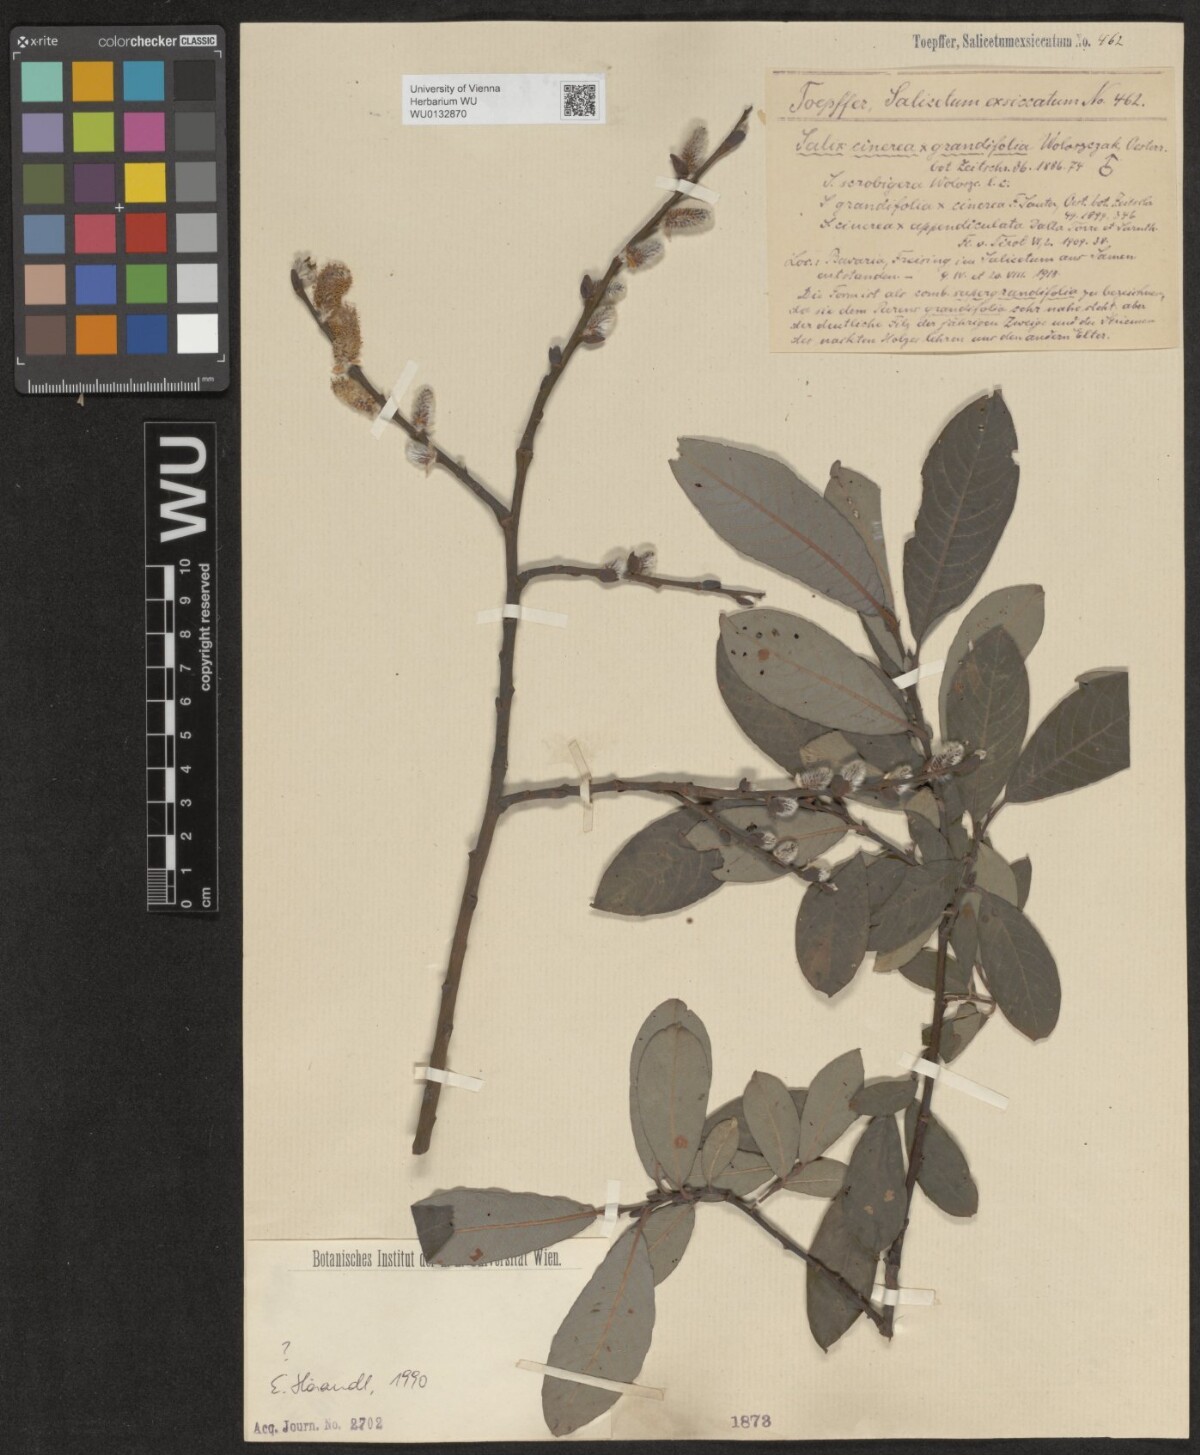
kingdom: Plantae
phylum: Tracheophyta
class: Magnoliopsida
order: Malpighiales
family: Salicaceae
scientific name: Salicaceae
